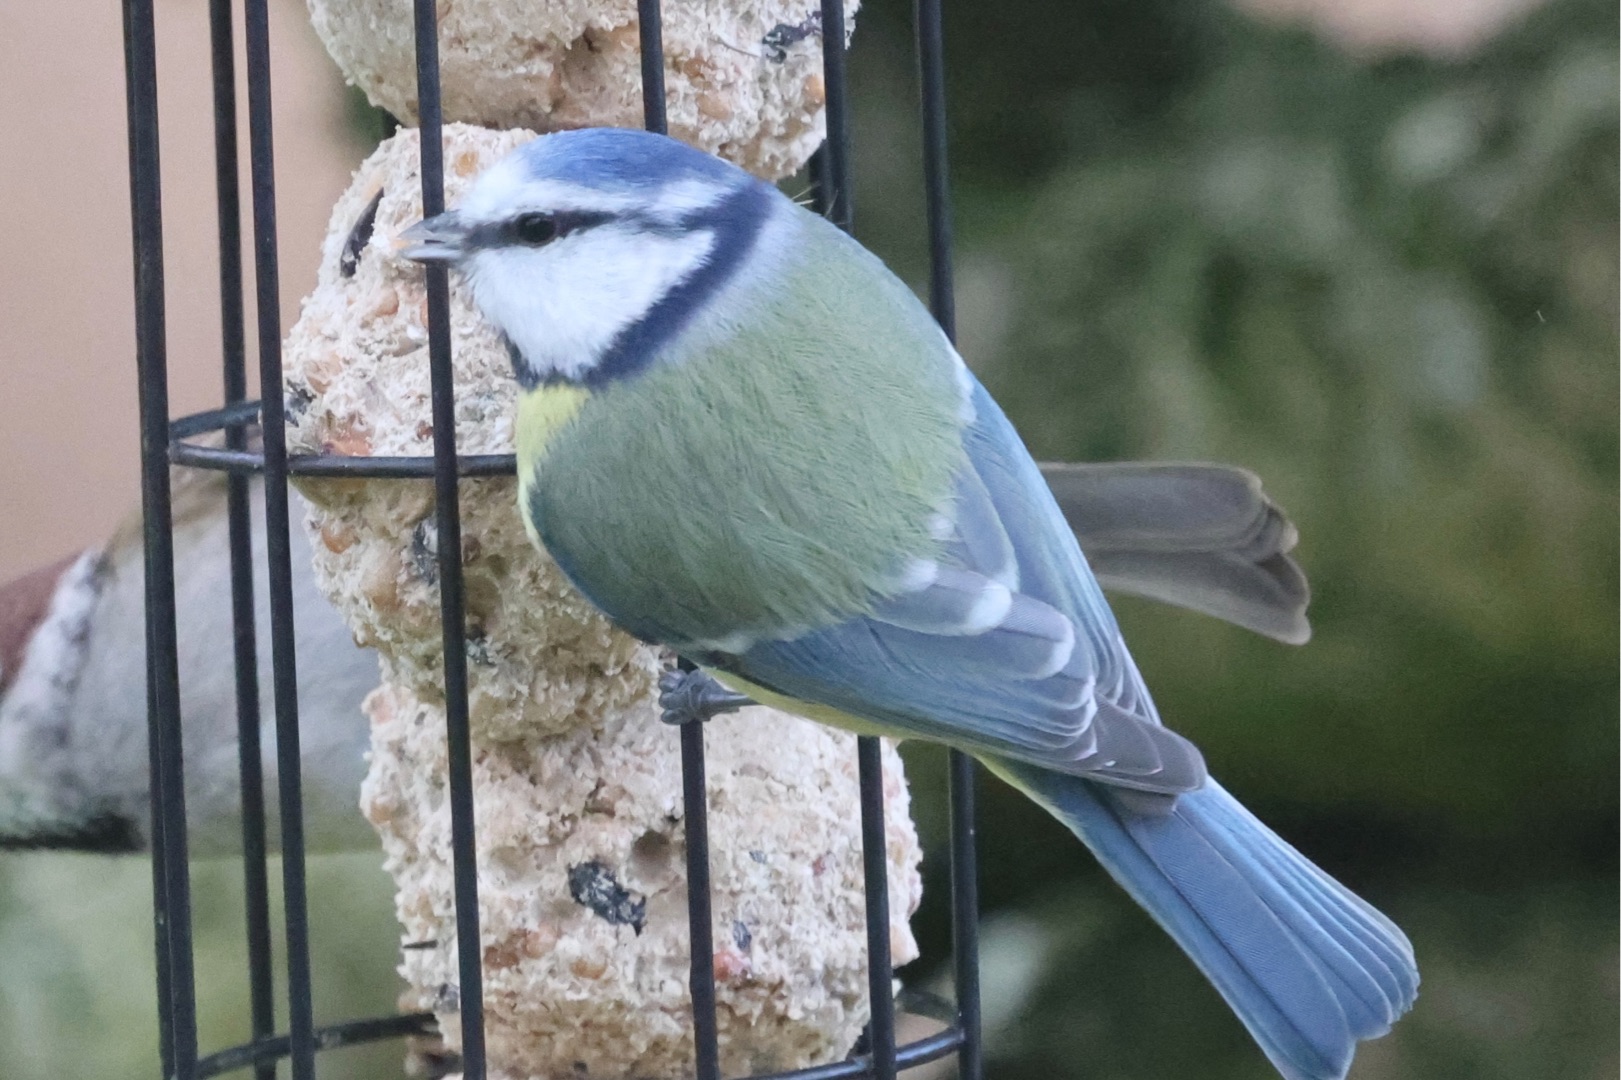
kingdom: Animalia
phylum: Chordata
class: Aves
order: Passeriformes
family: Paridae
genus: Cyanistes
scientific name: Cyanistes caeruleus
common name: Blåmejse
